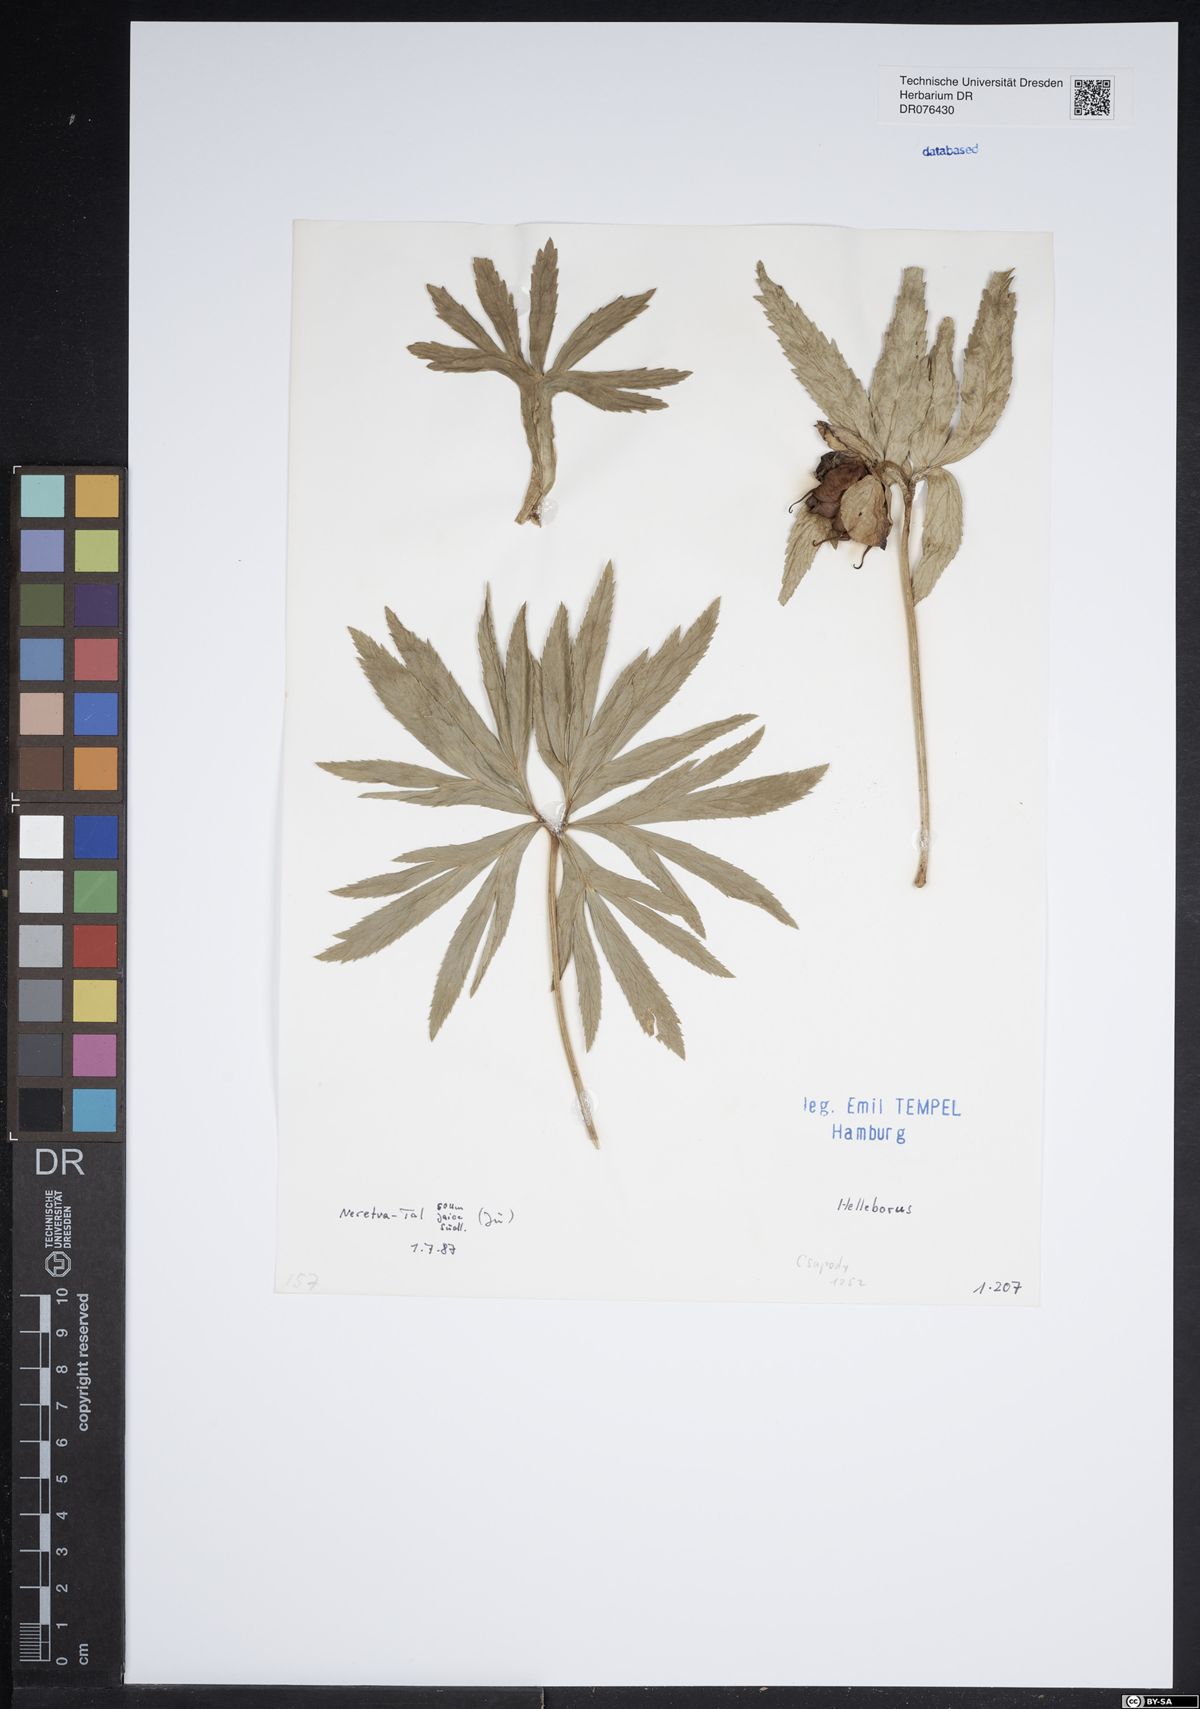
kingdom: Plantae
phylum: Tracheophyta
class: Magnoliopsida
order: Ranunculales
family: Ranunculaceae
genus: Helleborus
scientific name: Helleborus
